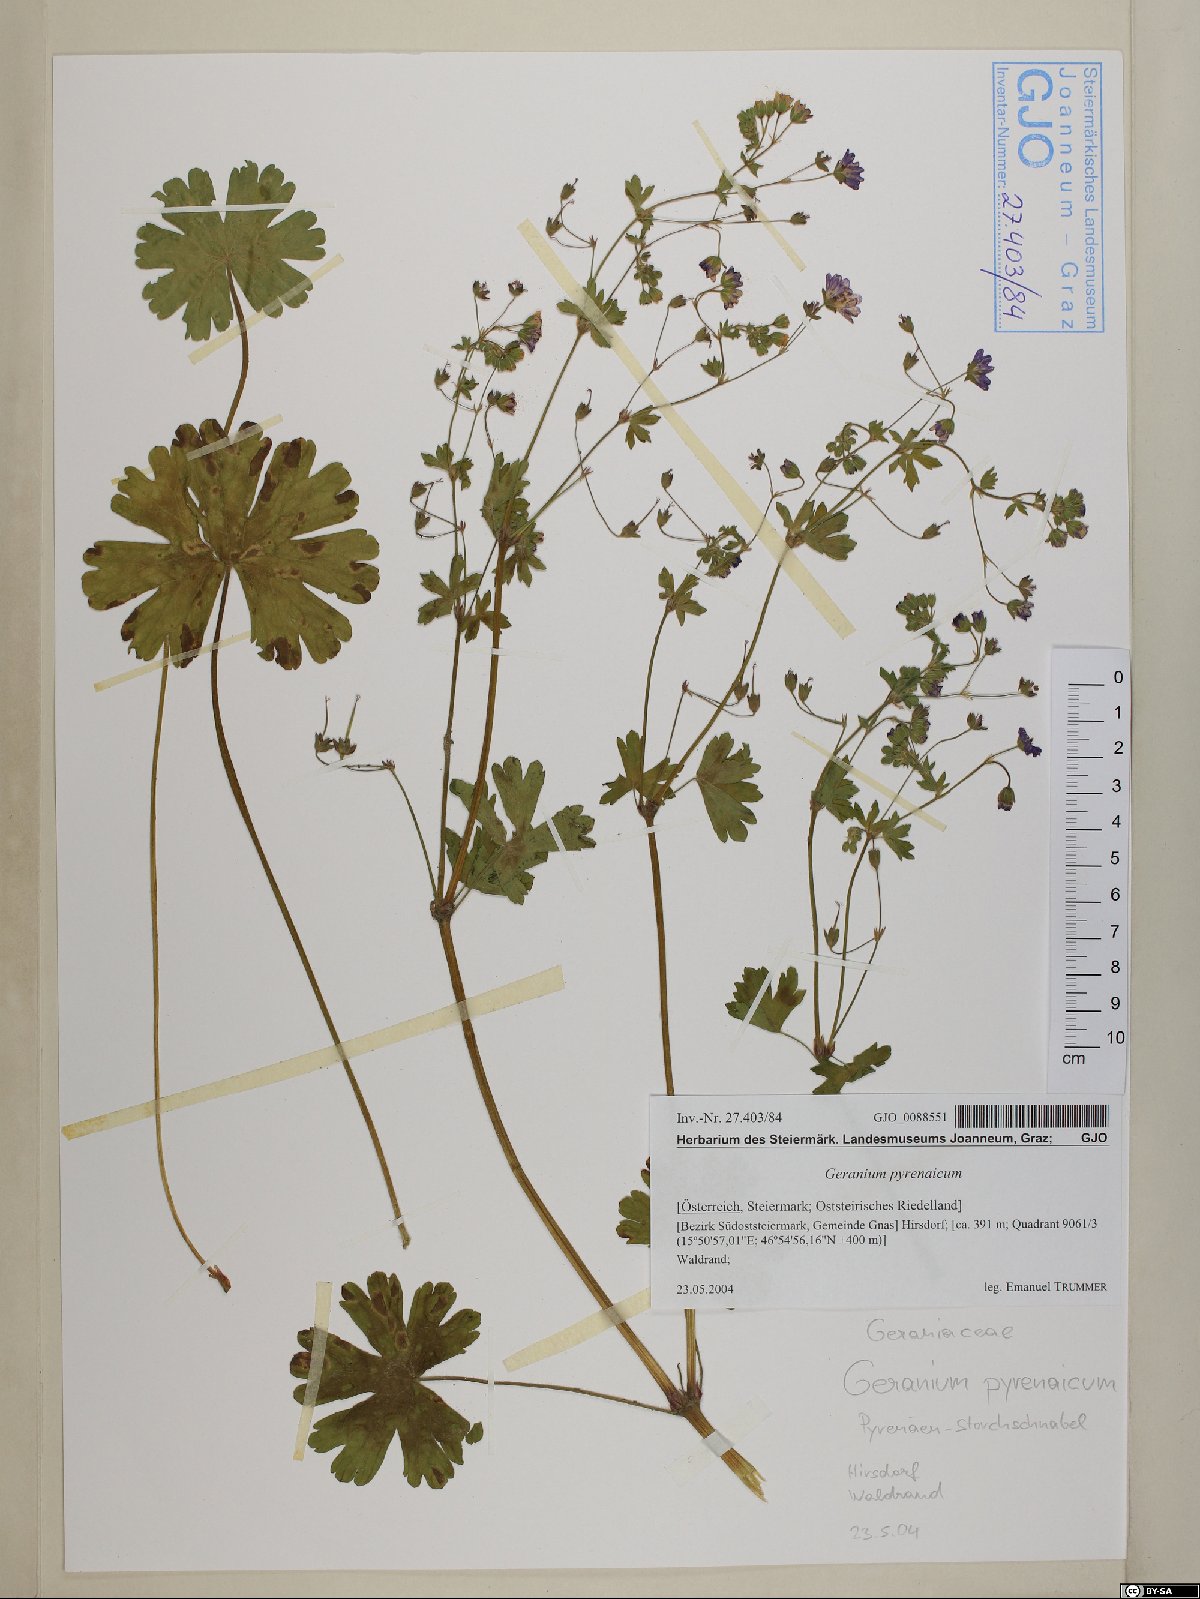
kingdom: Plantae
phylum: Tracheophyta
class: Magnoliopsida
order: Geraniales
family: Geraniaceae
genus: Geranium
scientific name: Geranium pyrenaicum
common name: Hedgerow crane's-bill
